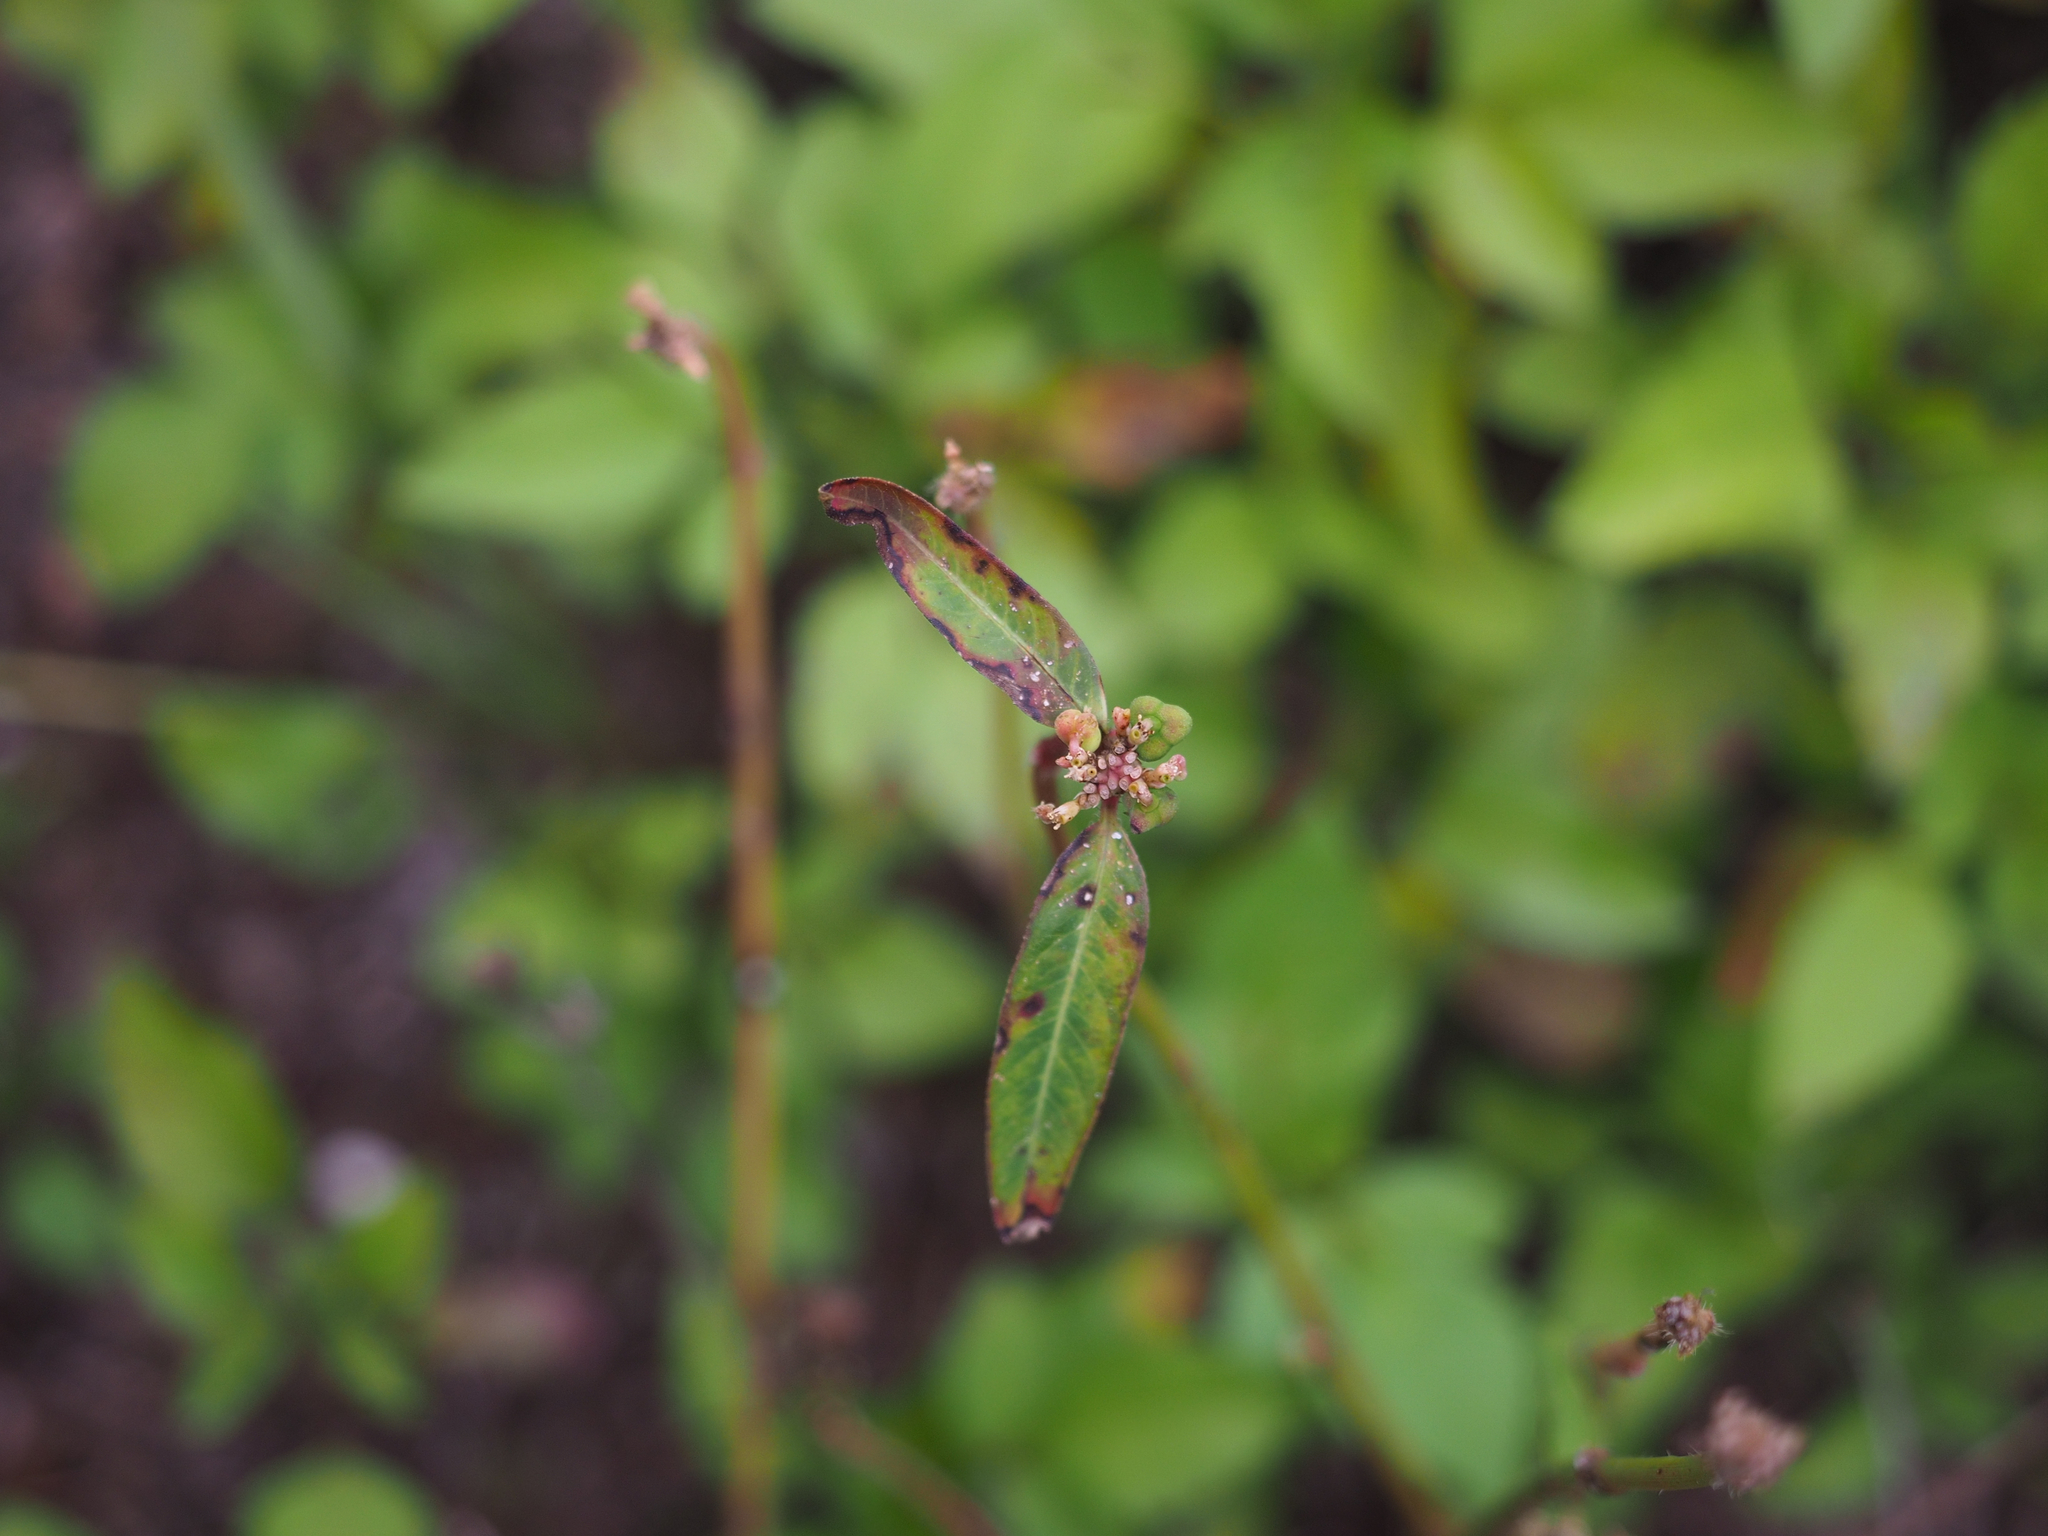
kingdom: Plantae
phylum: Tracheophyta
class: Magnoliopsida
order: Malpighiales
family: Euphorbiaceae
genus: Euphorbia
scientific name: Euphorbia heterophylla
